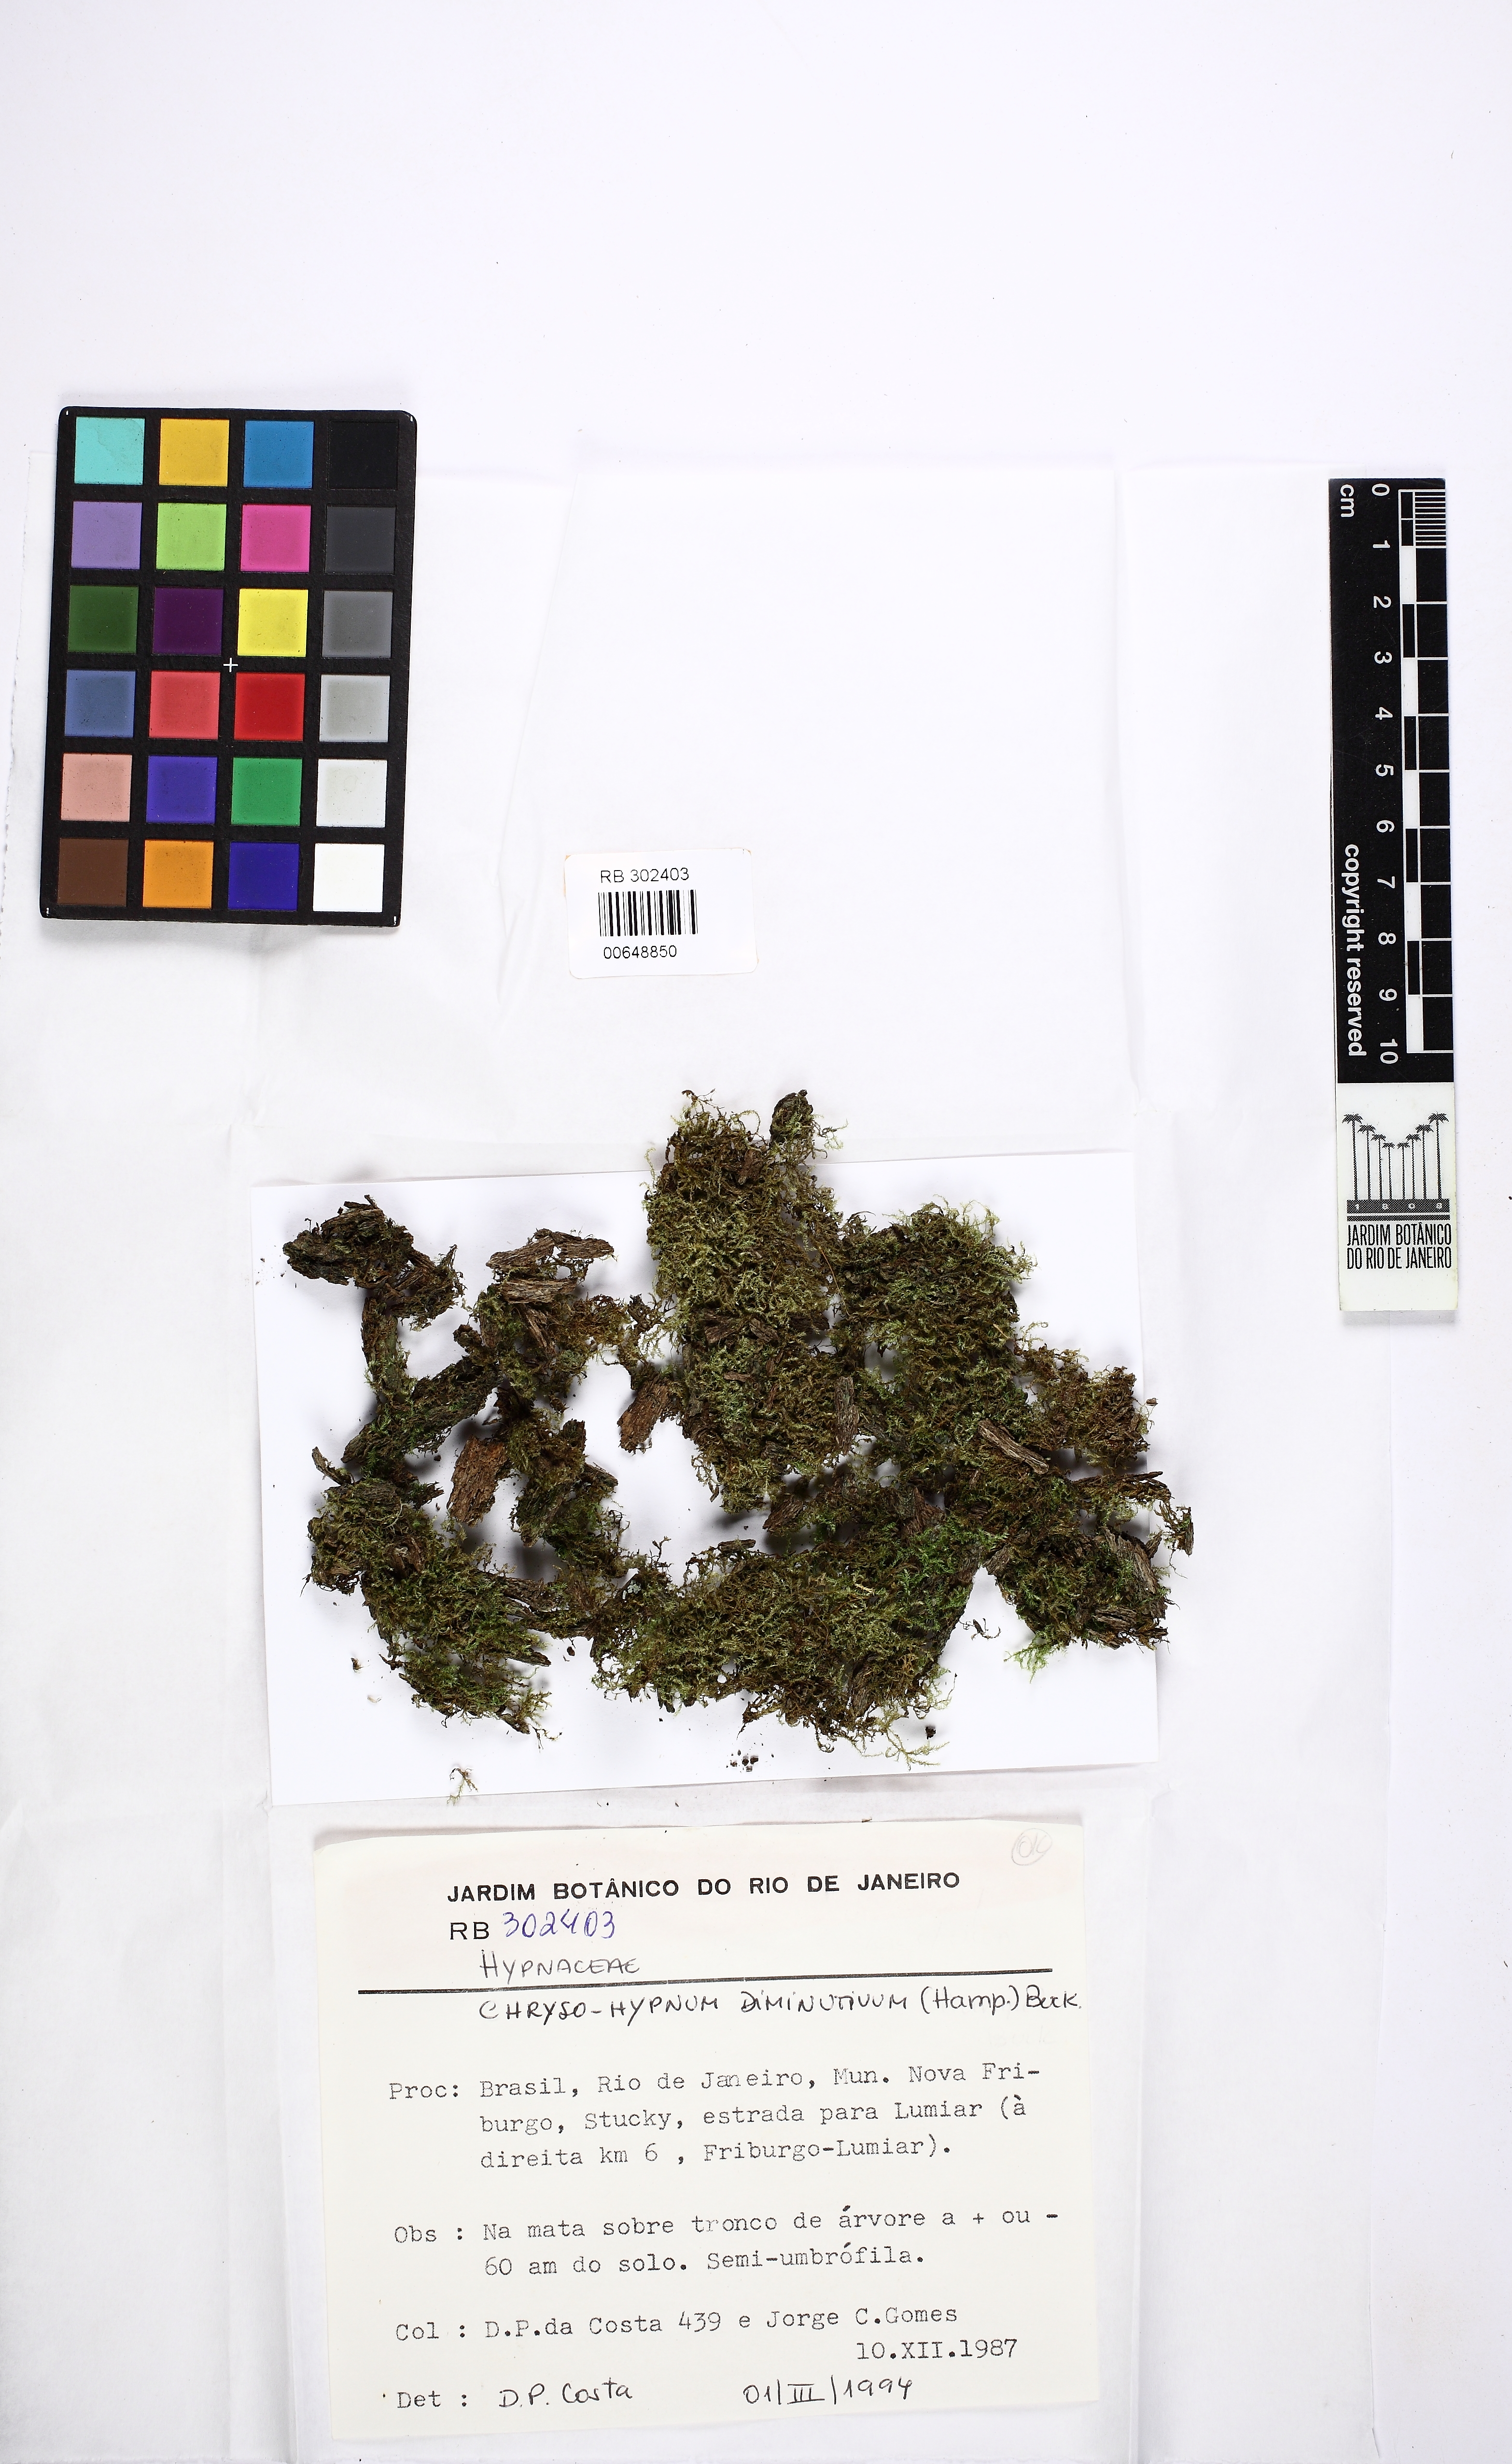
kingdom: Plantae
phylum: Bryophyta
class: Bryopsida
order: Hypnales
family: Hypnaceae
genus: Chryso-hypnum
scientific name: Chryso-hypnum diminutivum
